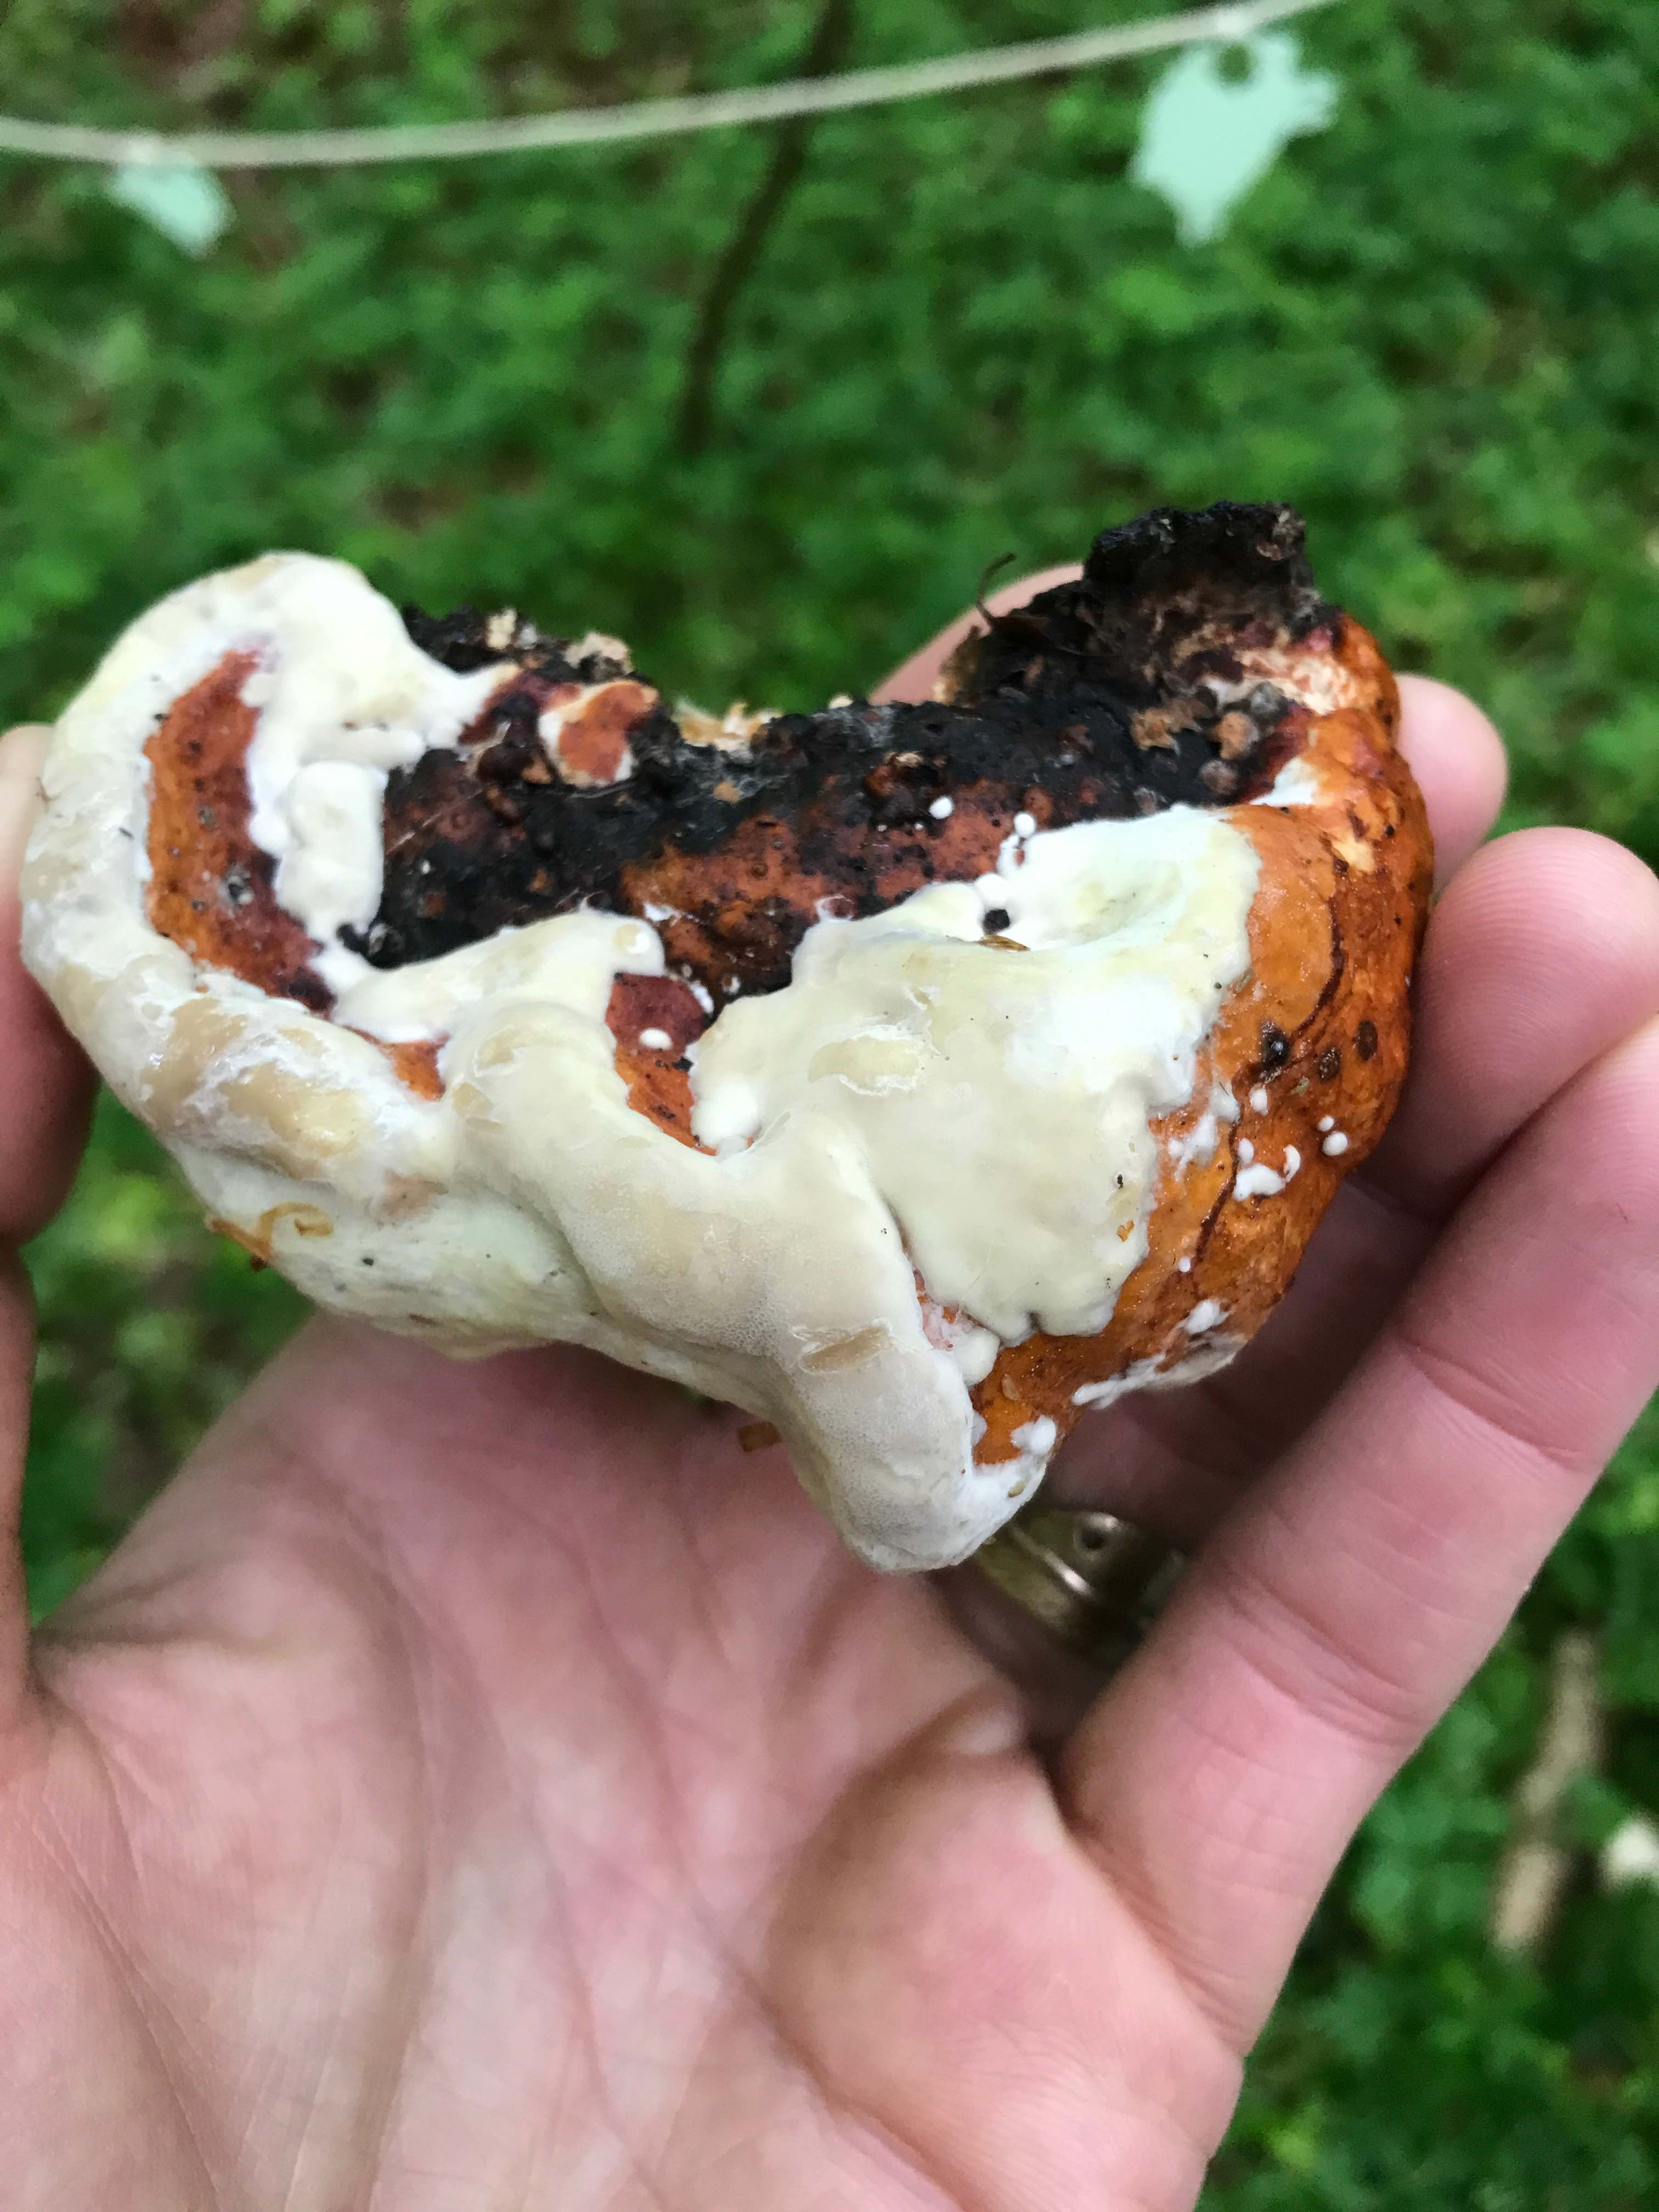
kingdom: Fungi
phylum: Basidiomycota
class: Agaricomycetes
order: Polyporales
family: Fomitopsidaceae
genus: Fomitopsis
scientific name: Fomitopsis pinicola
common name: randbæltet hovporesvamp
